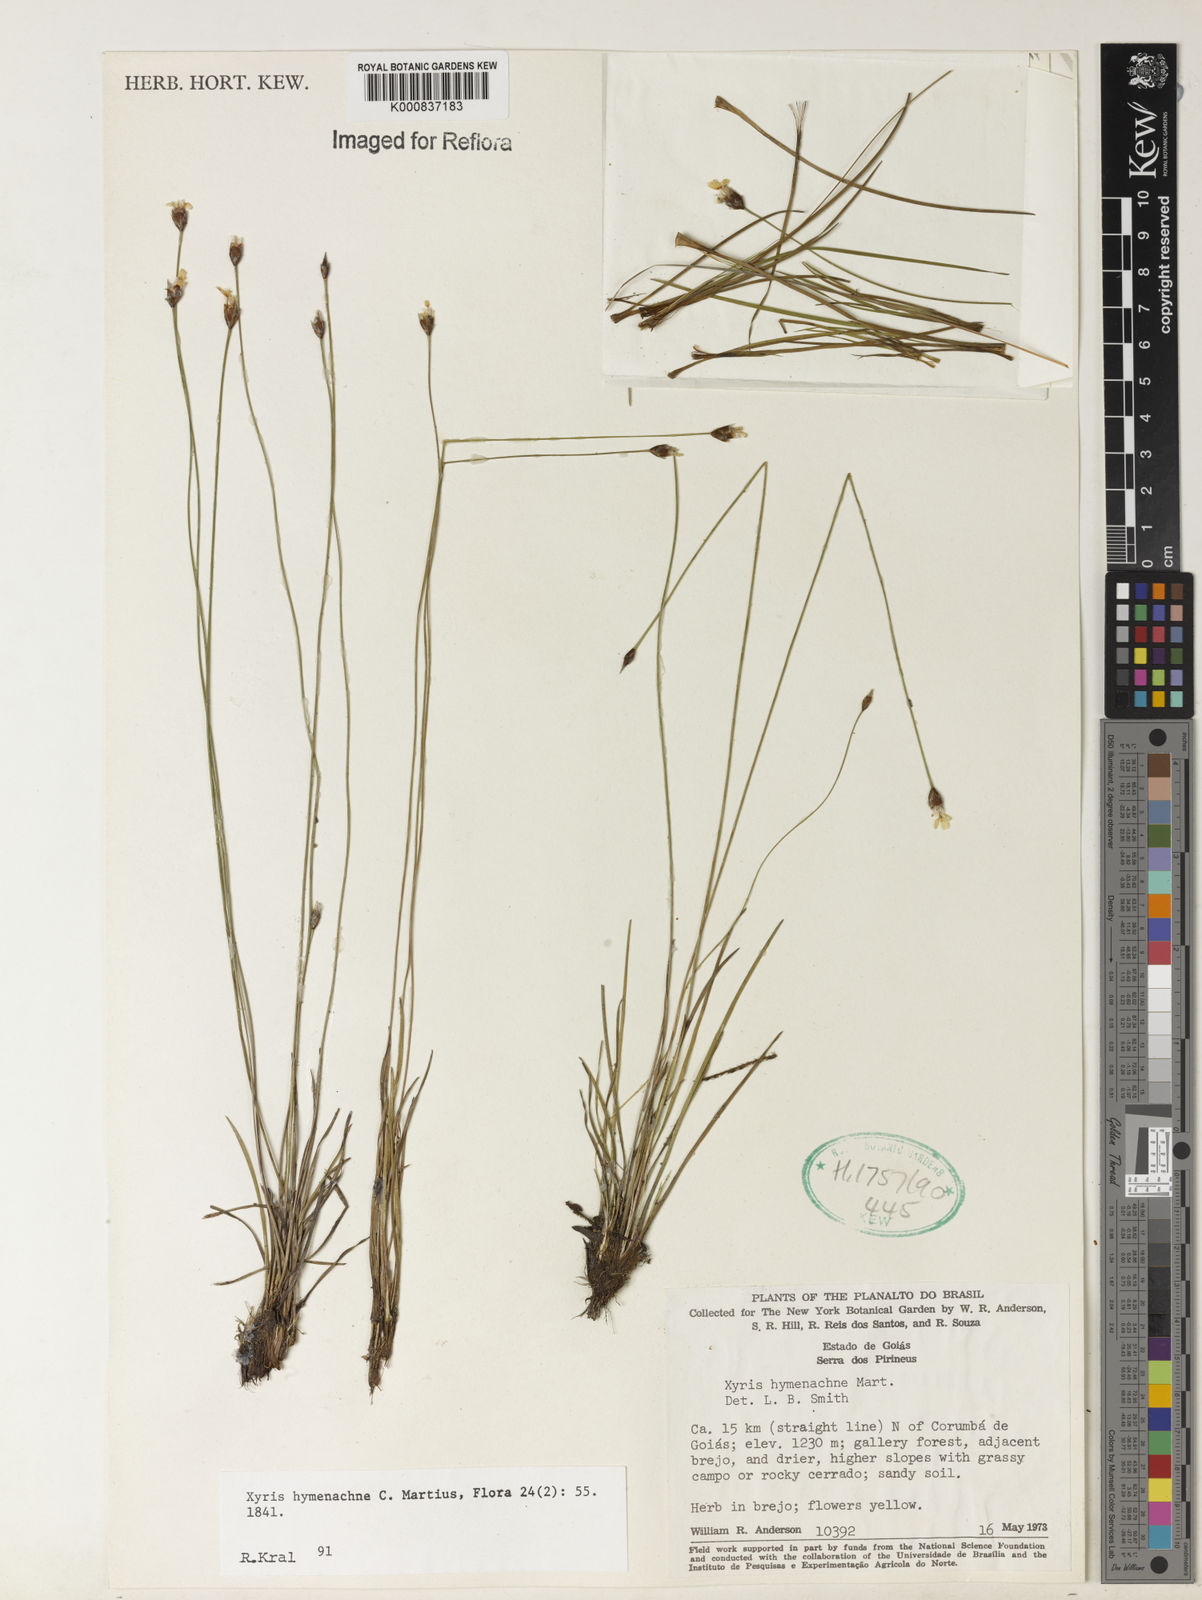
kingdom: Plantae
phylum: Tracheophyta
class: Liliopsida
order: Poales
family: Xyridaceae
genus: Xyris
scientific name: Xyris hymenachne
